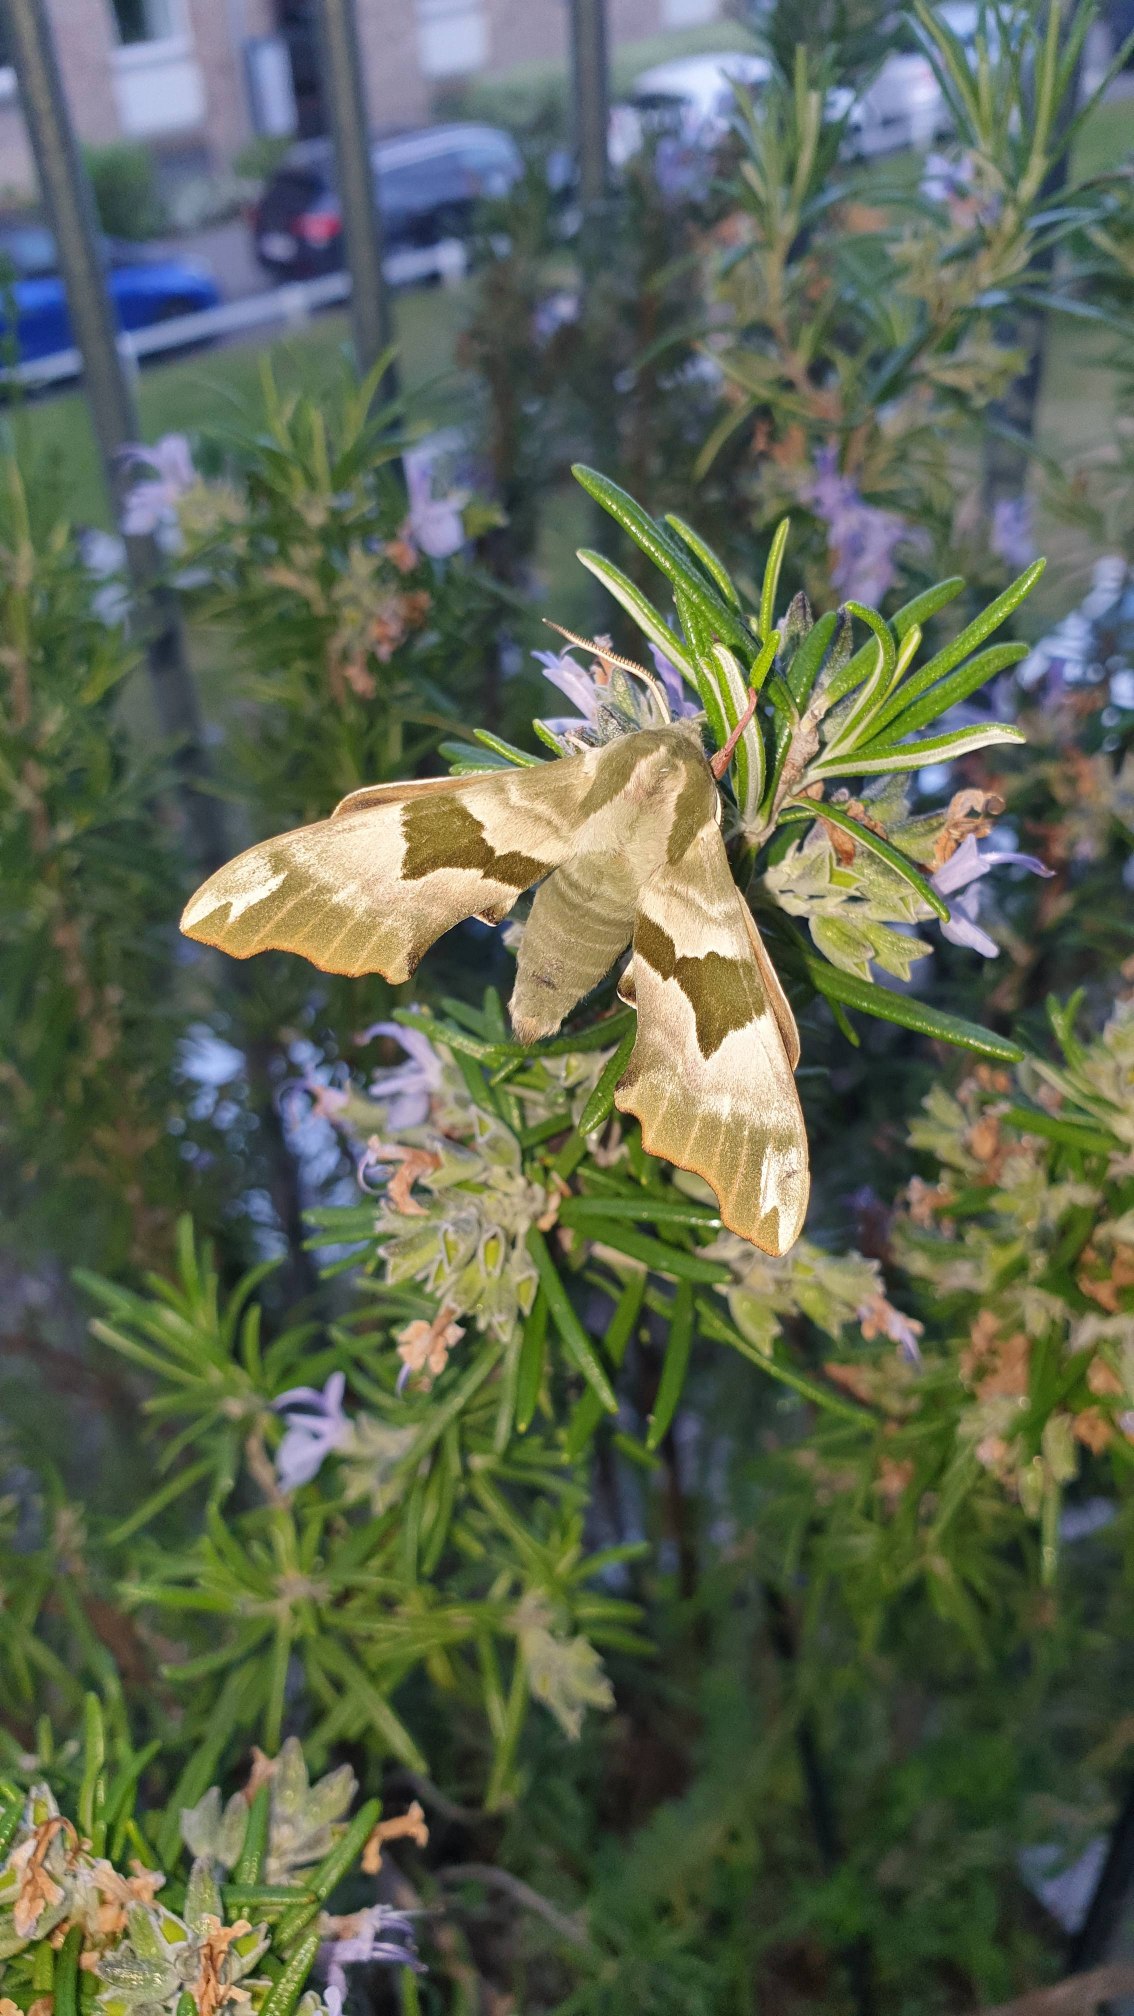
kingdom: Animalia
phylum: Arthropoda
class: Insecta
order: Lepidoptera
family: Sphingidae
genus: Mimas
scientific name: Mimas tiliae
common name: Lindesværmer
